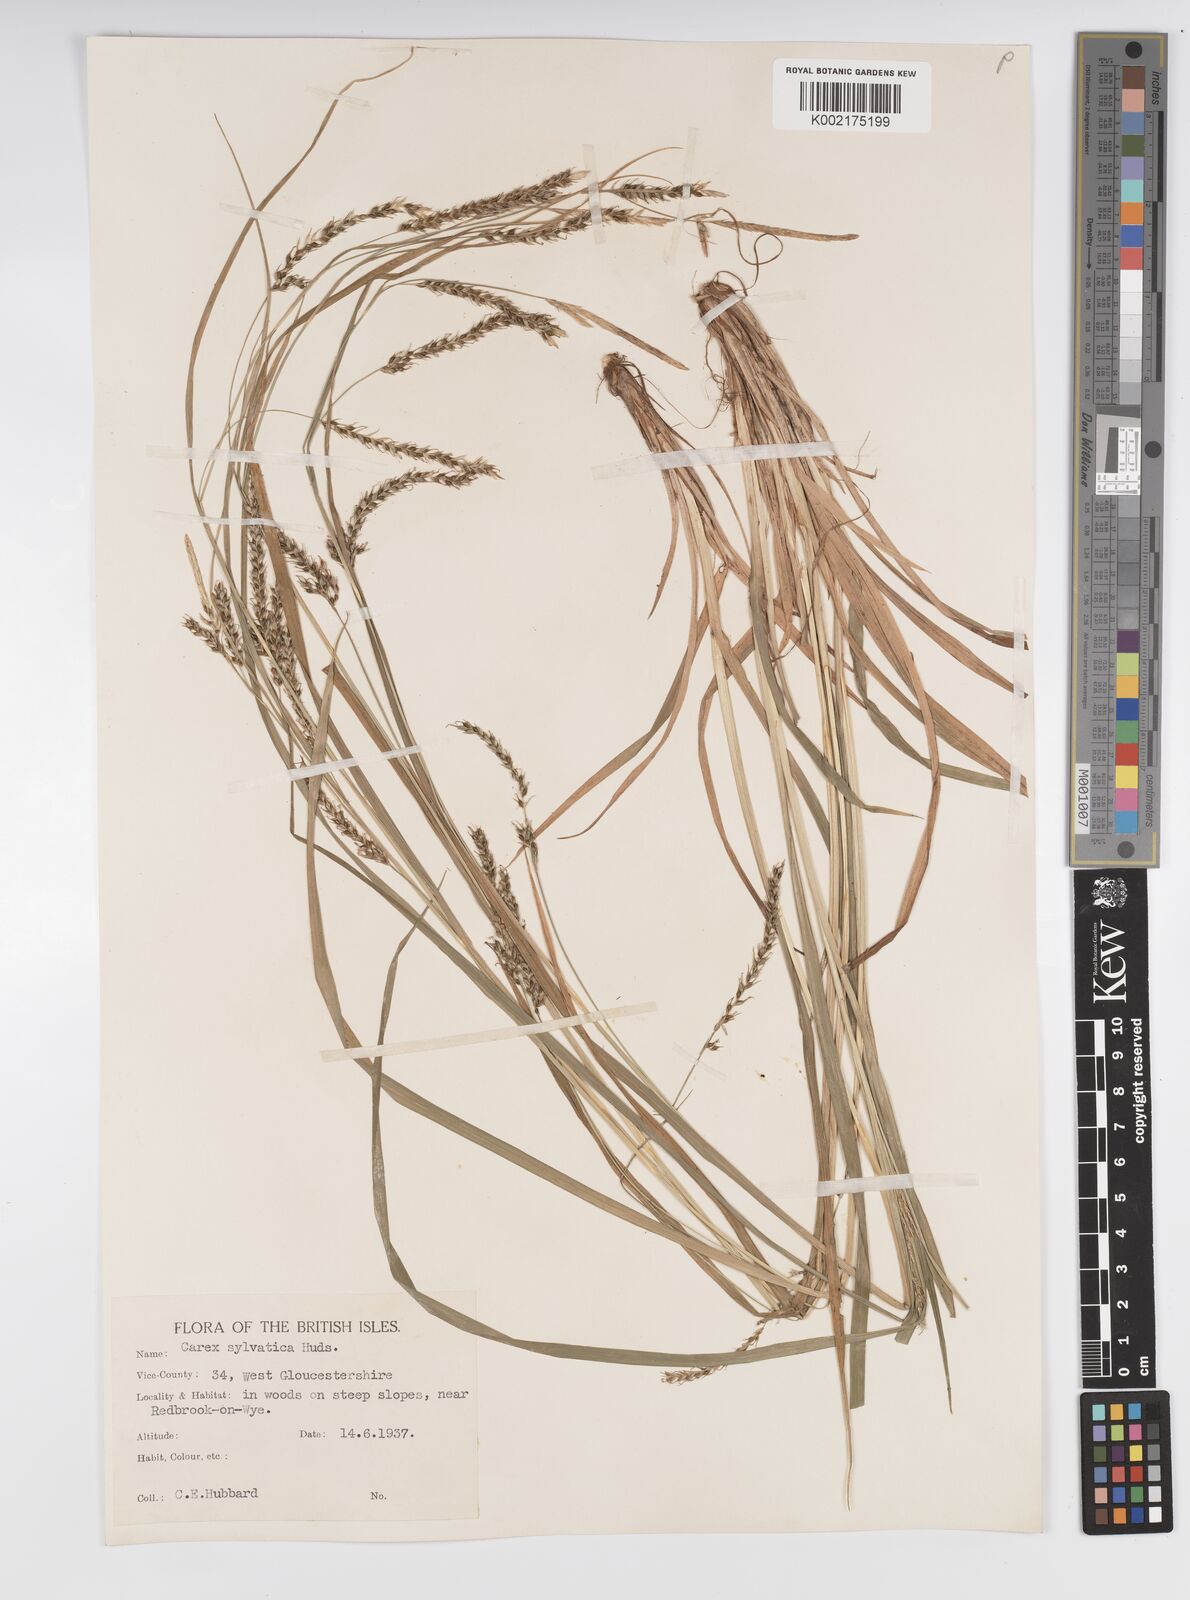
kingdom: Plantae
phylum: Tracheophyta
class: Liliopsida
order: Poales
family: Cyperaceae
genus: Carex
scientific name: Carex sylvatica
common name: Wood-sedge
